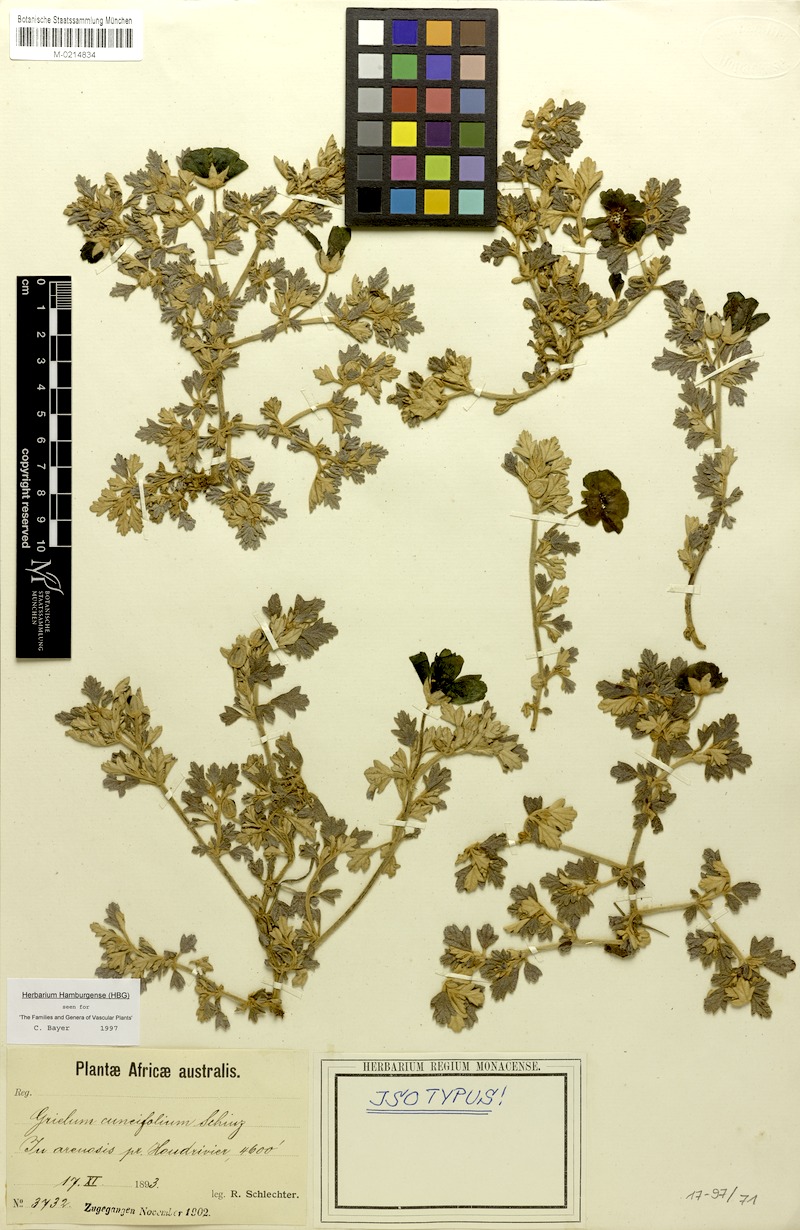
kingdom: Plantae
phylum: Tracheophyta
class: Magnoliopsida
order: Malvales
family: Neuradaceae
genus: Grielum
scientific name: Grielum cuneifolium
